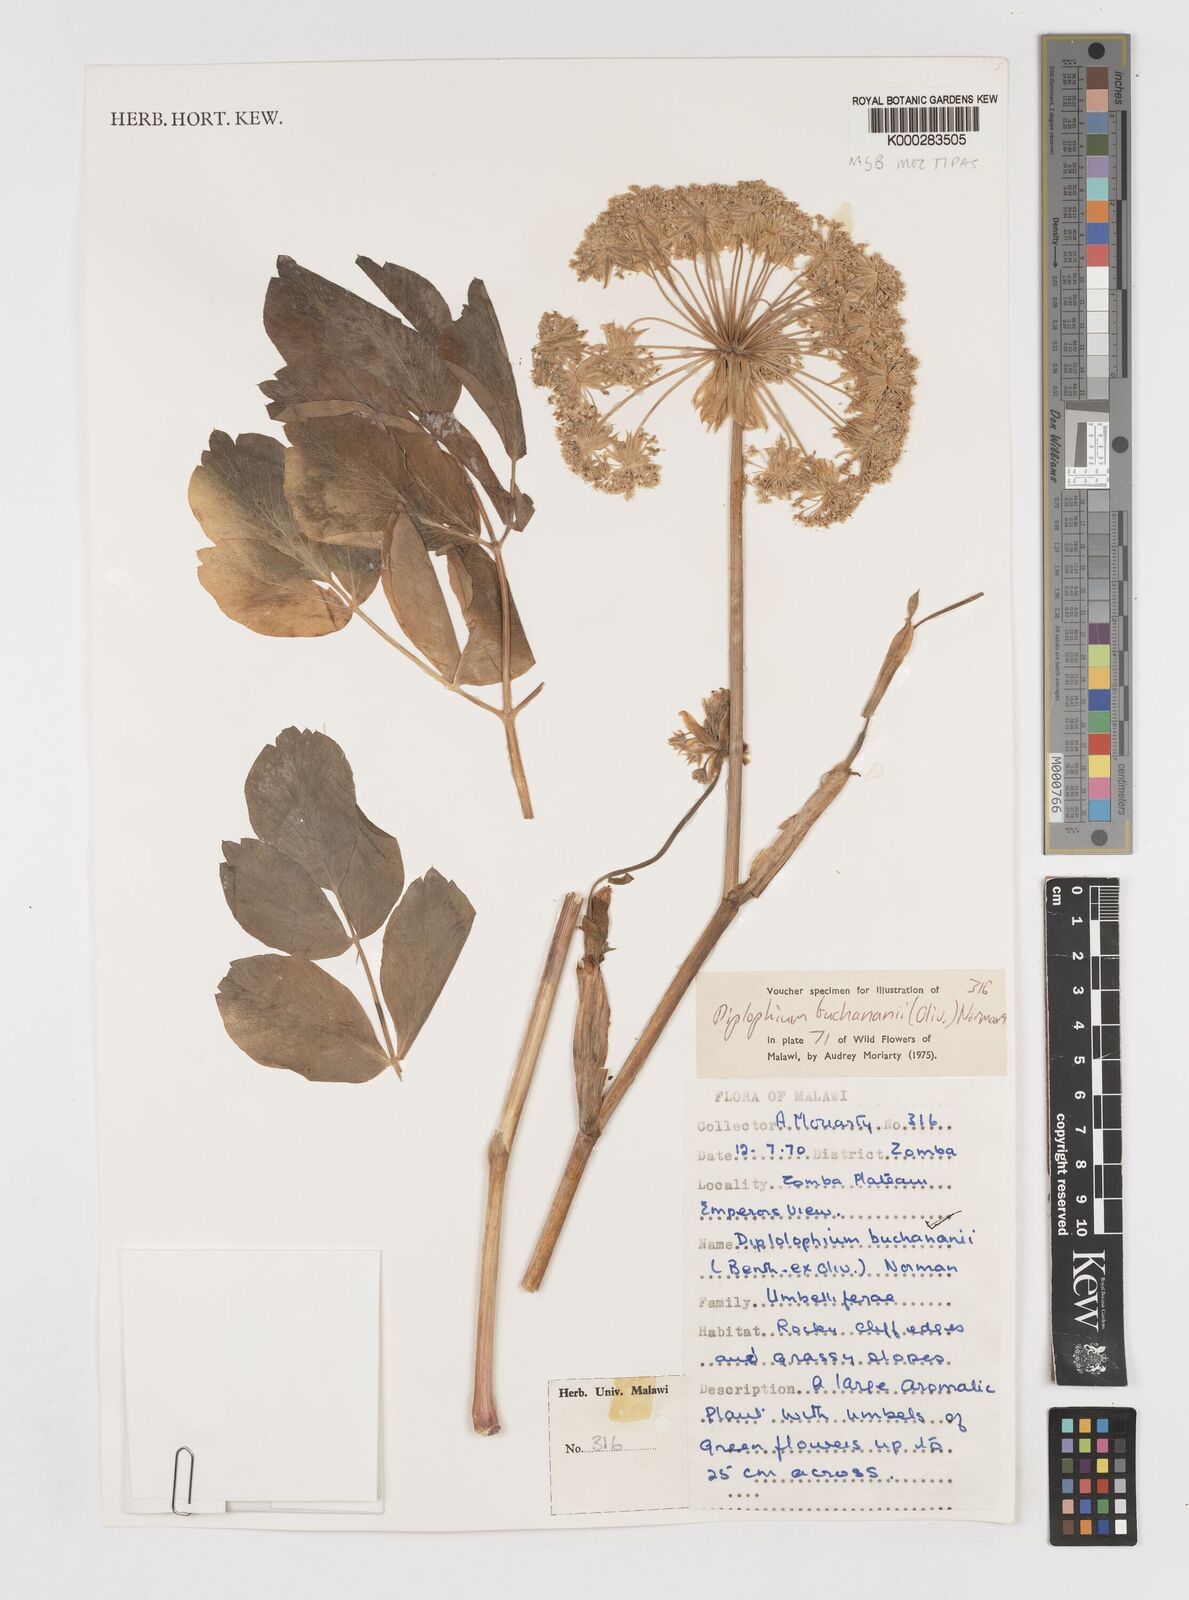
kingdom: Plantae
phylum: Tracheophyta
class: Magnoliopsida
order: Apiales
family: Apiaceae
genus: Diplolophium
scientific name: Diplolophium buchananii
